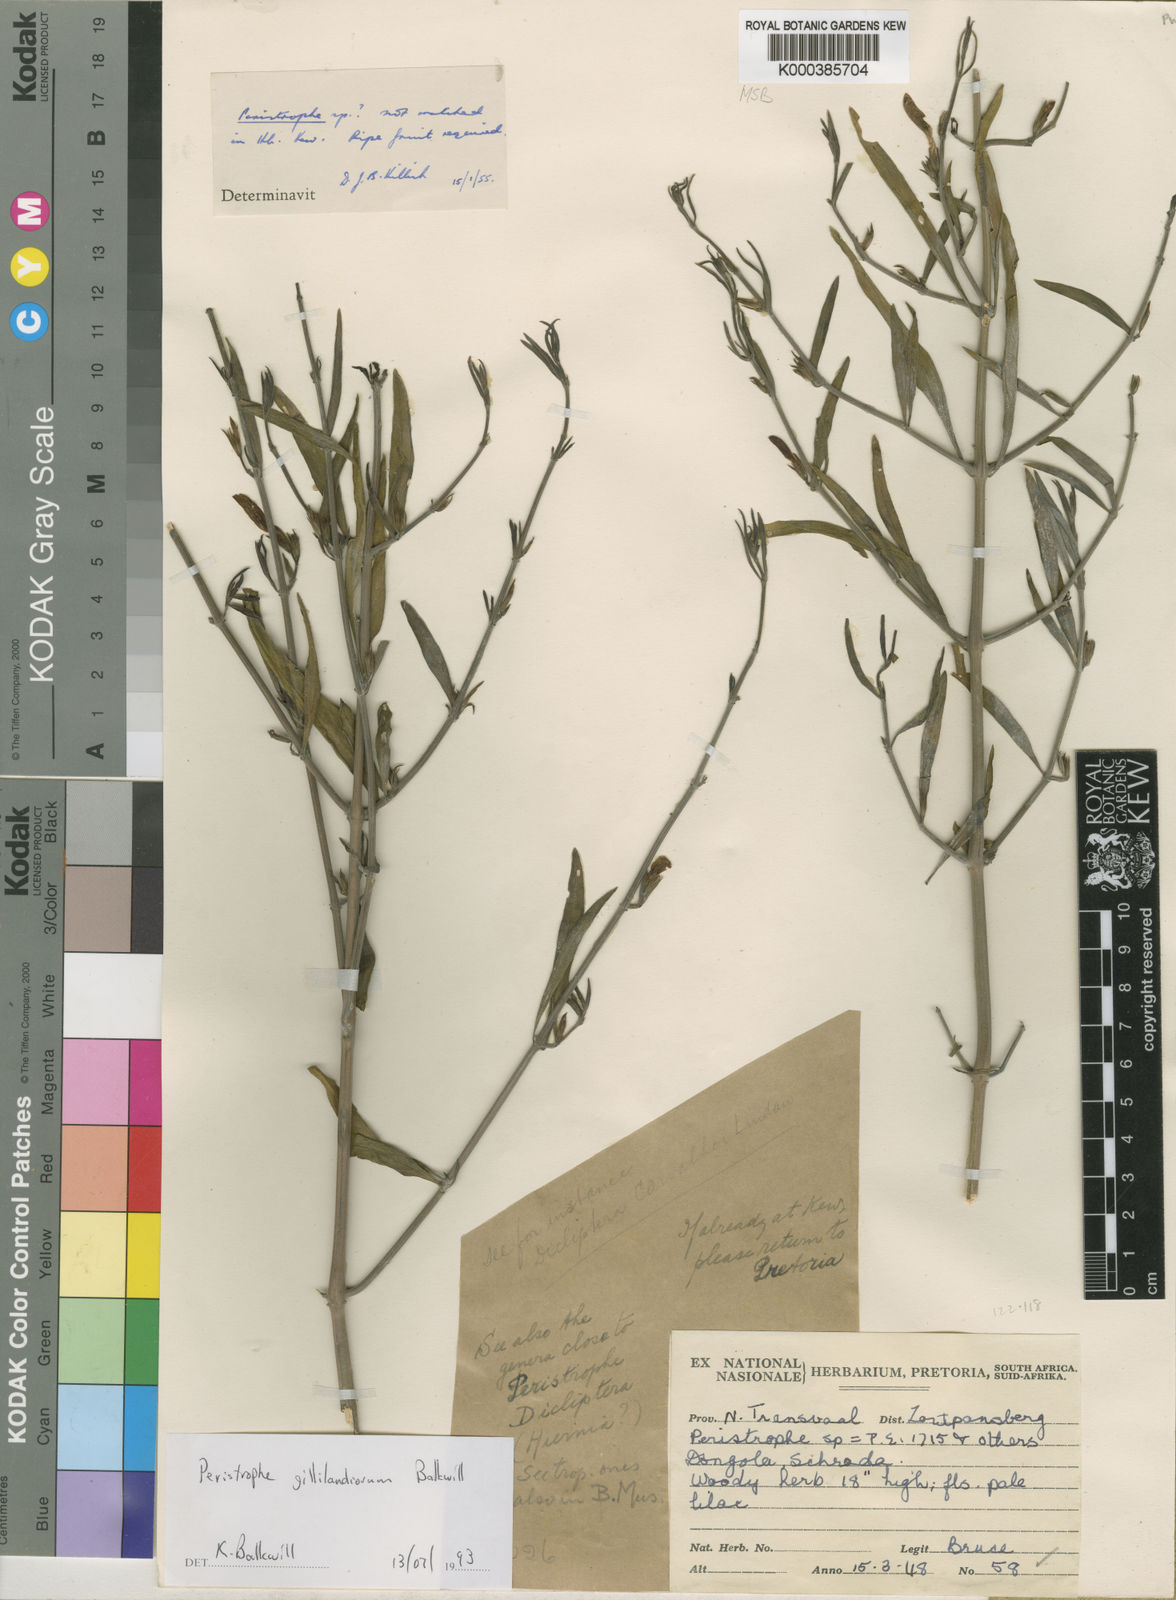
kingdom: Plantae
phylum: Tracheophyta
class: Magnoliopsida
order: Lamiales
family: Acanthaceae
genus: Dicliptera
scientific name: Dicliptera gillilandiorum
